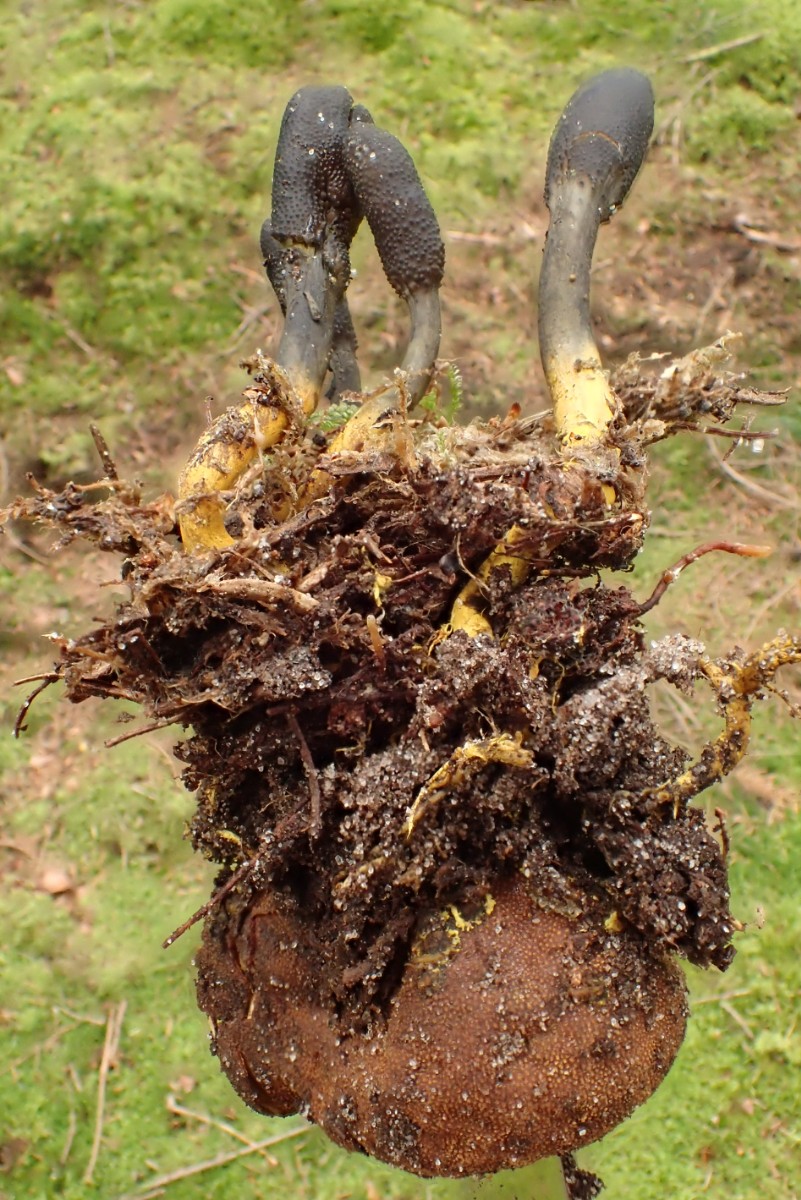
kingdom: Fungi
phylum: Ascomycota
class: Sordariomycetes
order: Hypocreales
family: Ophiocordycipitaceae
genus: Tolypocladium
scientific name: Tolypocladium ophioglossoides
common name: slank snyltekølle
